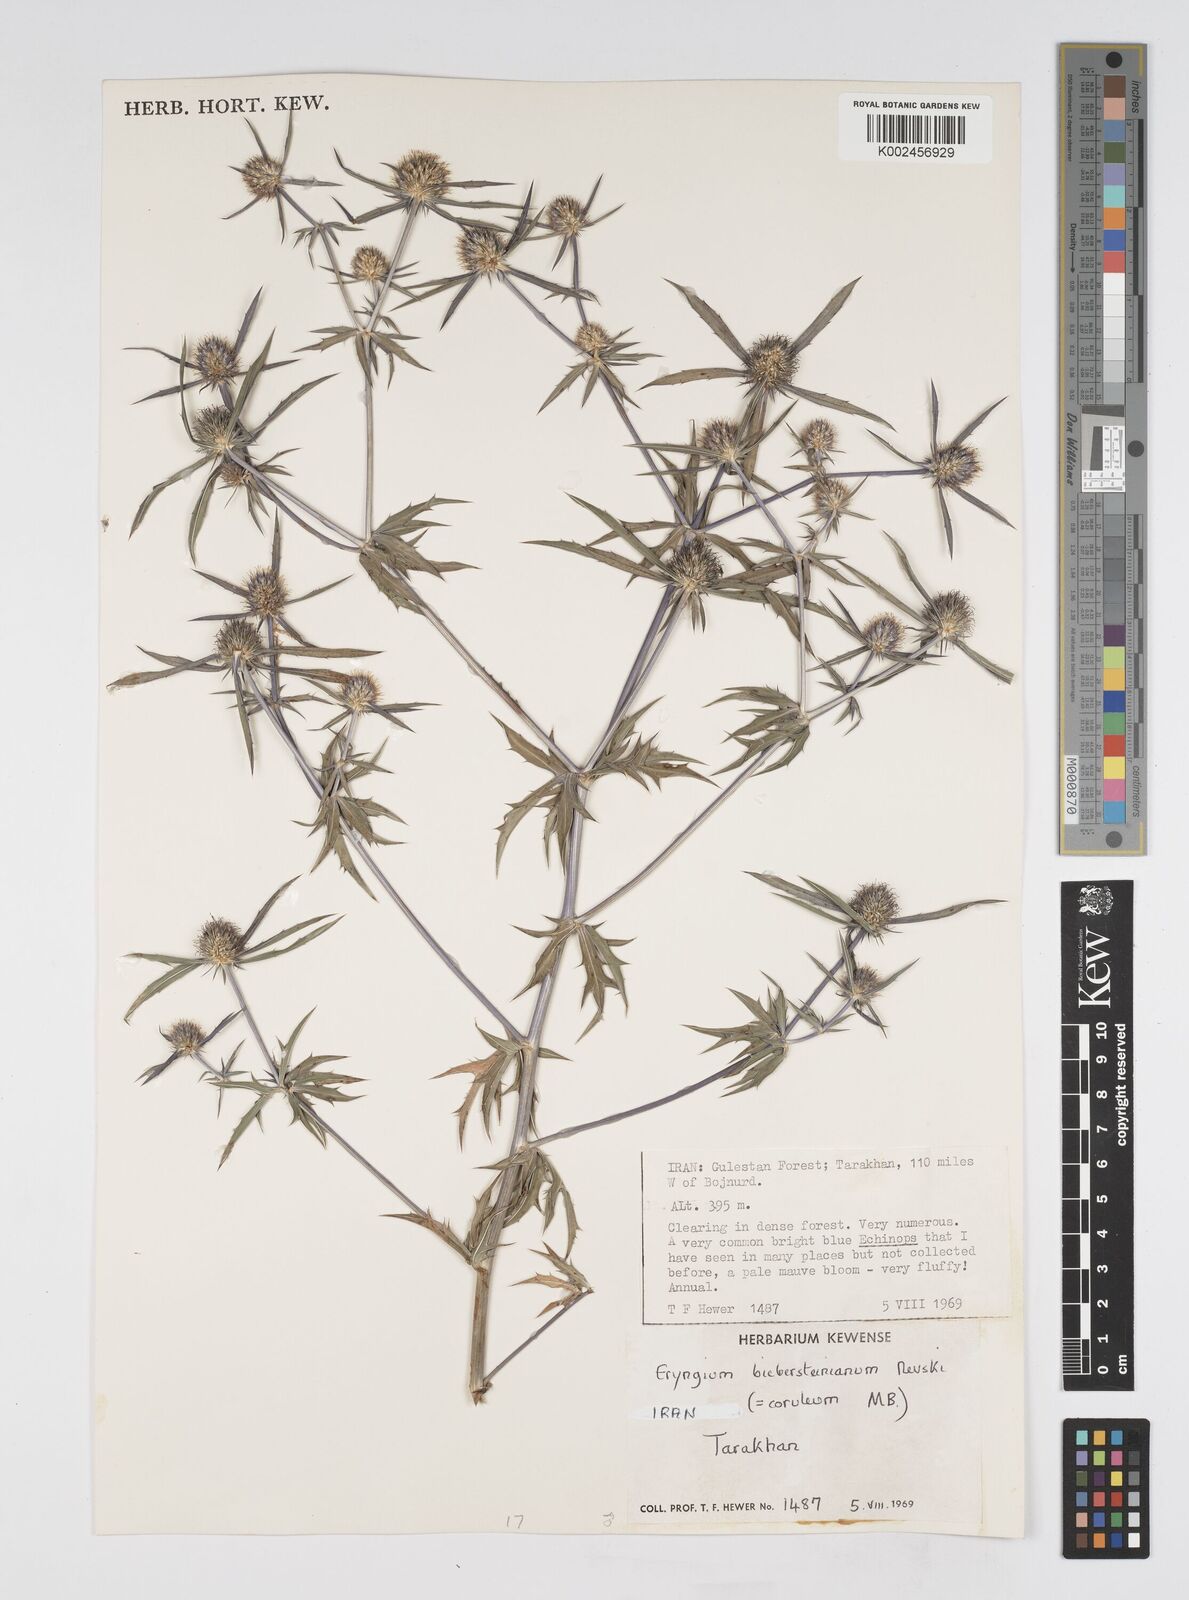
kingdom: Plantae
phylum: Tracheophyta
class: Magnoliopsida
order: Apiales
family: Apiaceae
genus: Eryngium
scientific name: Eryngium caeruleum
